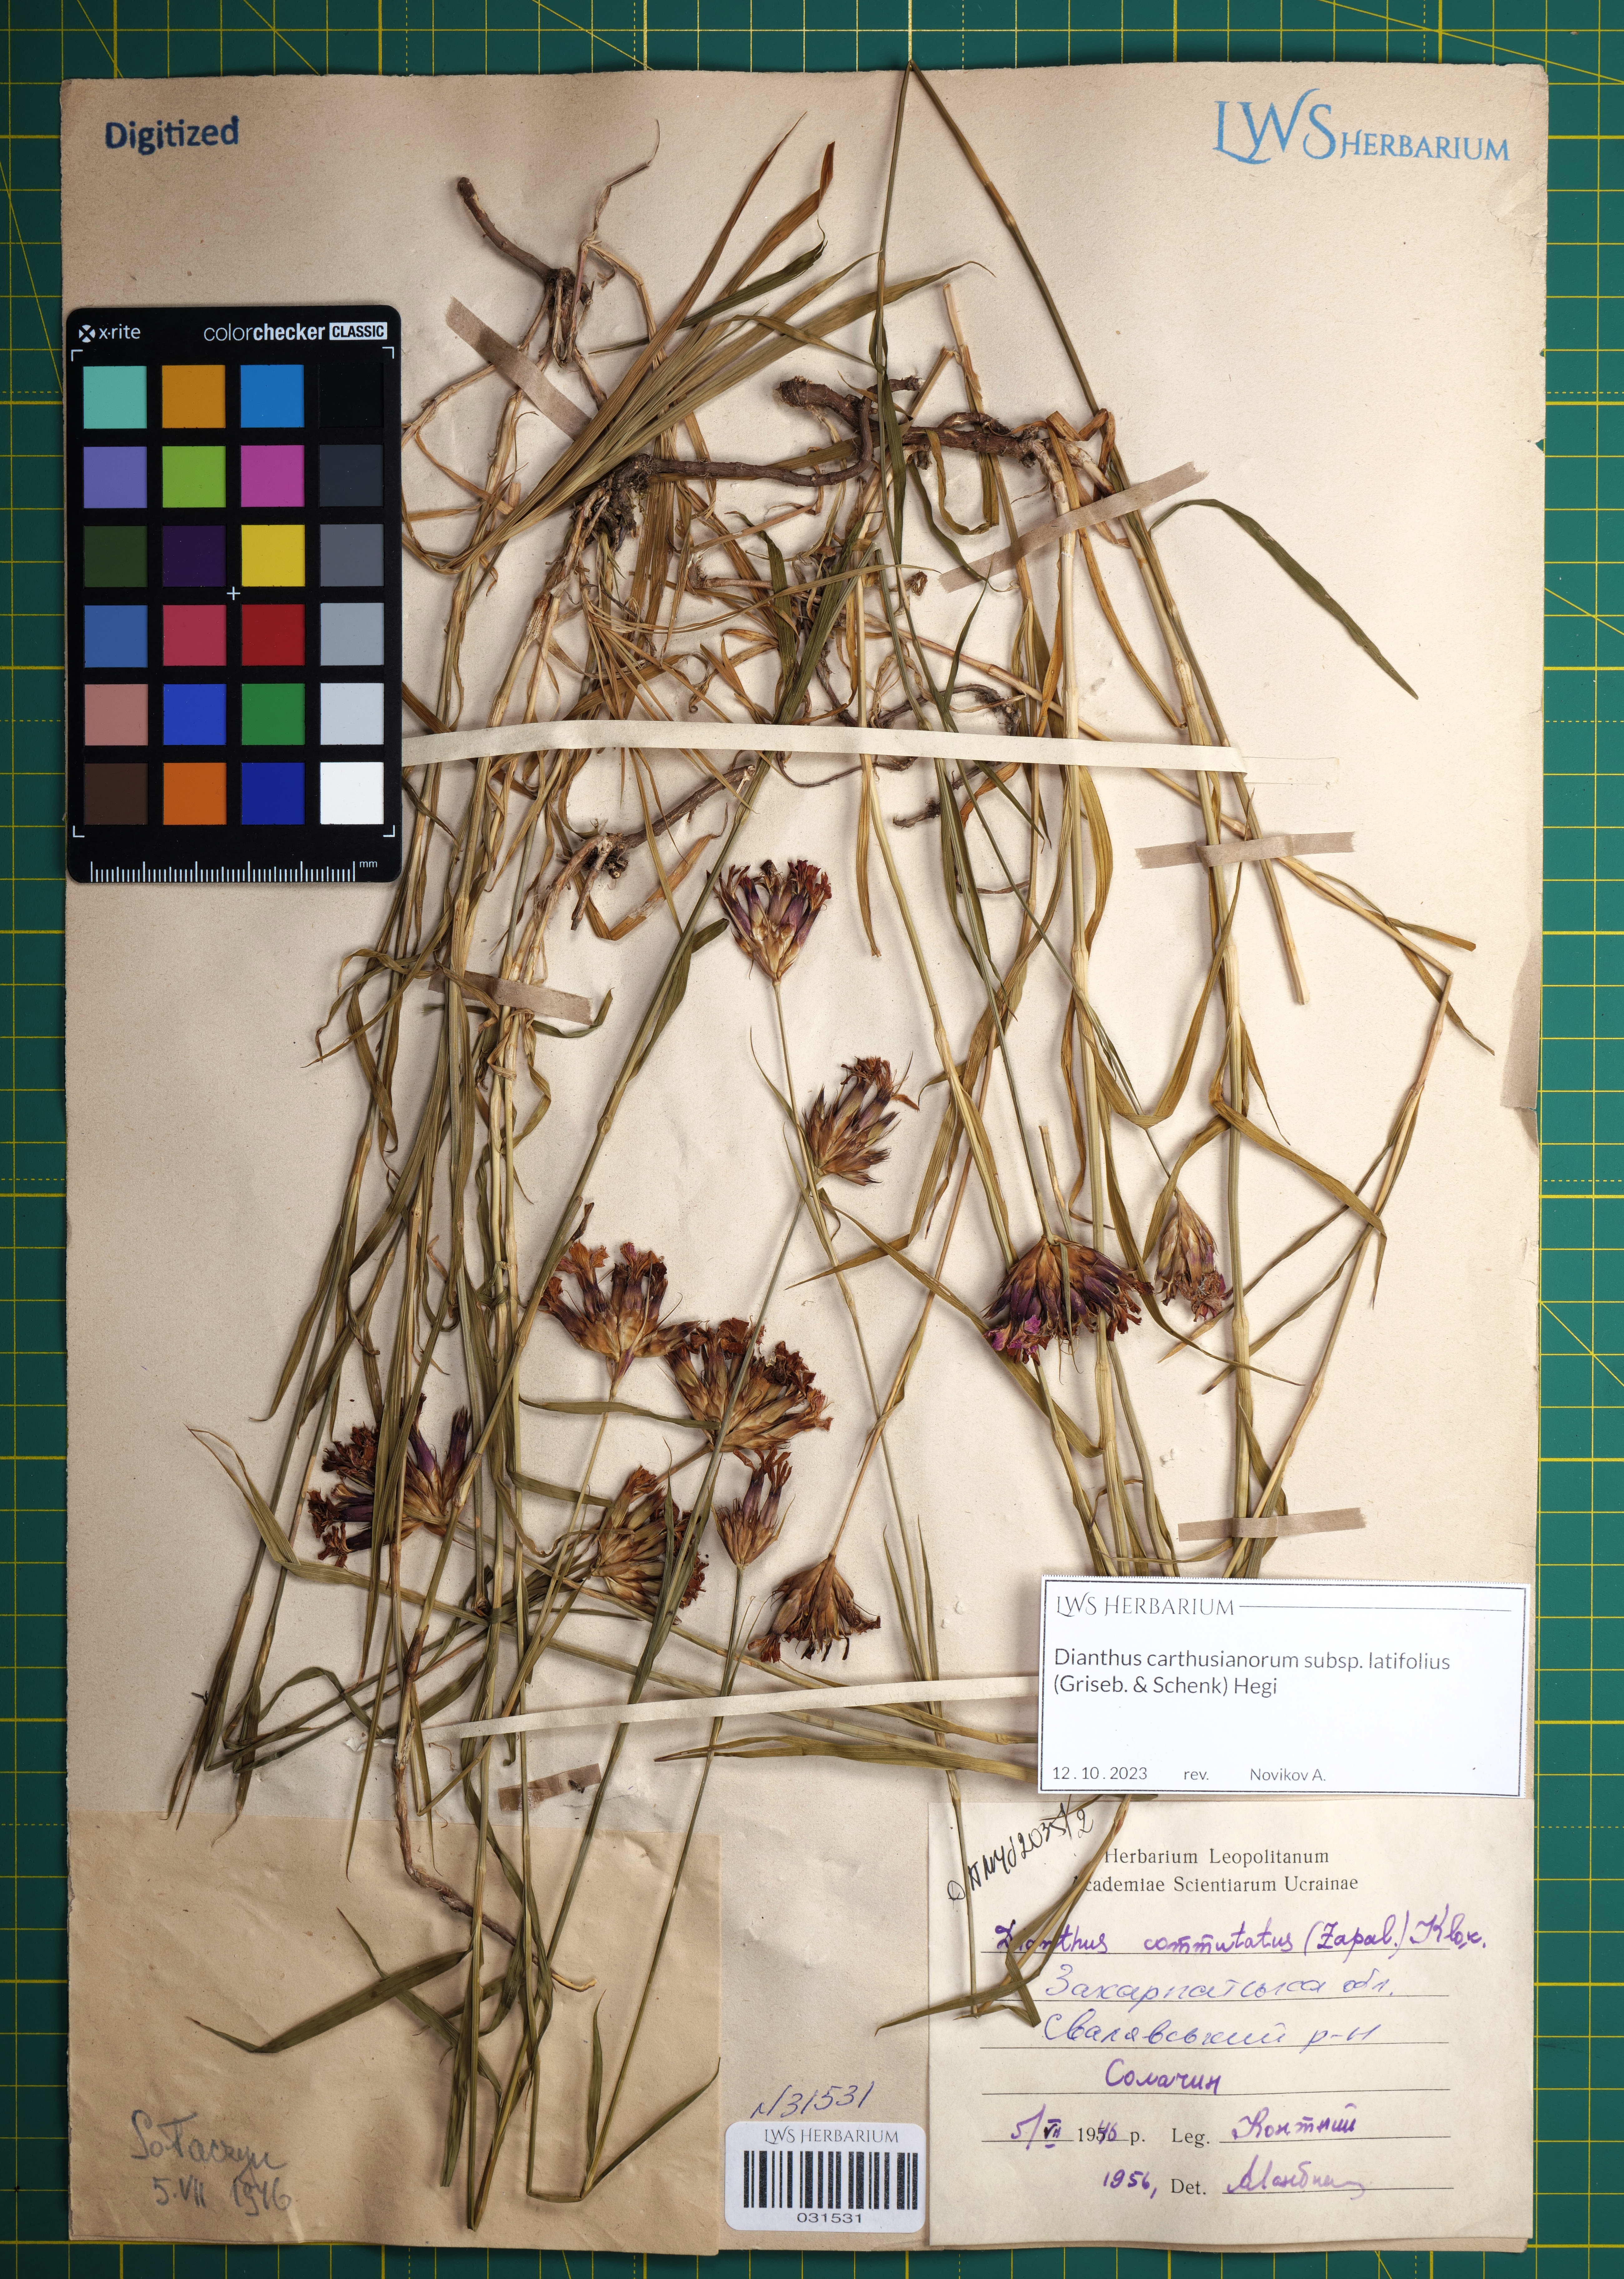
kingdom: Plantae
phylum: Tracheophyta
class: Magnoliopsida
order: Caryophyllales
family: Caryophyllaceae
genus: Dianthus
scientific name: Dianthus carthusianorum
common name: Carthusian pink
